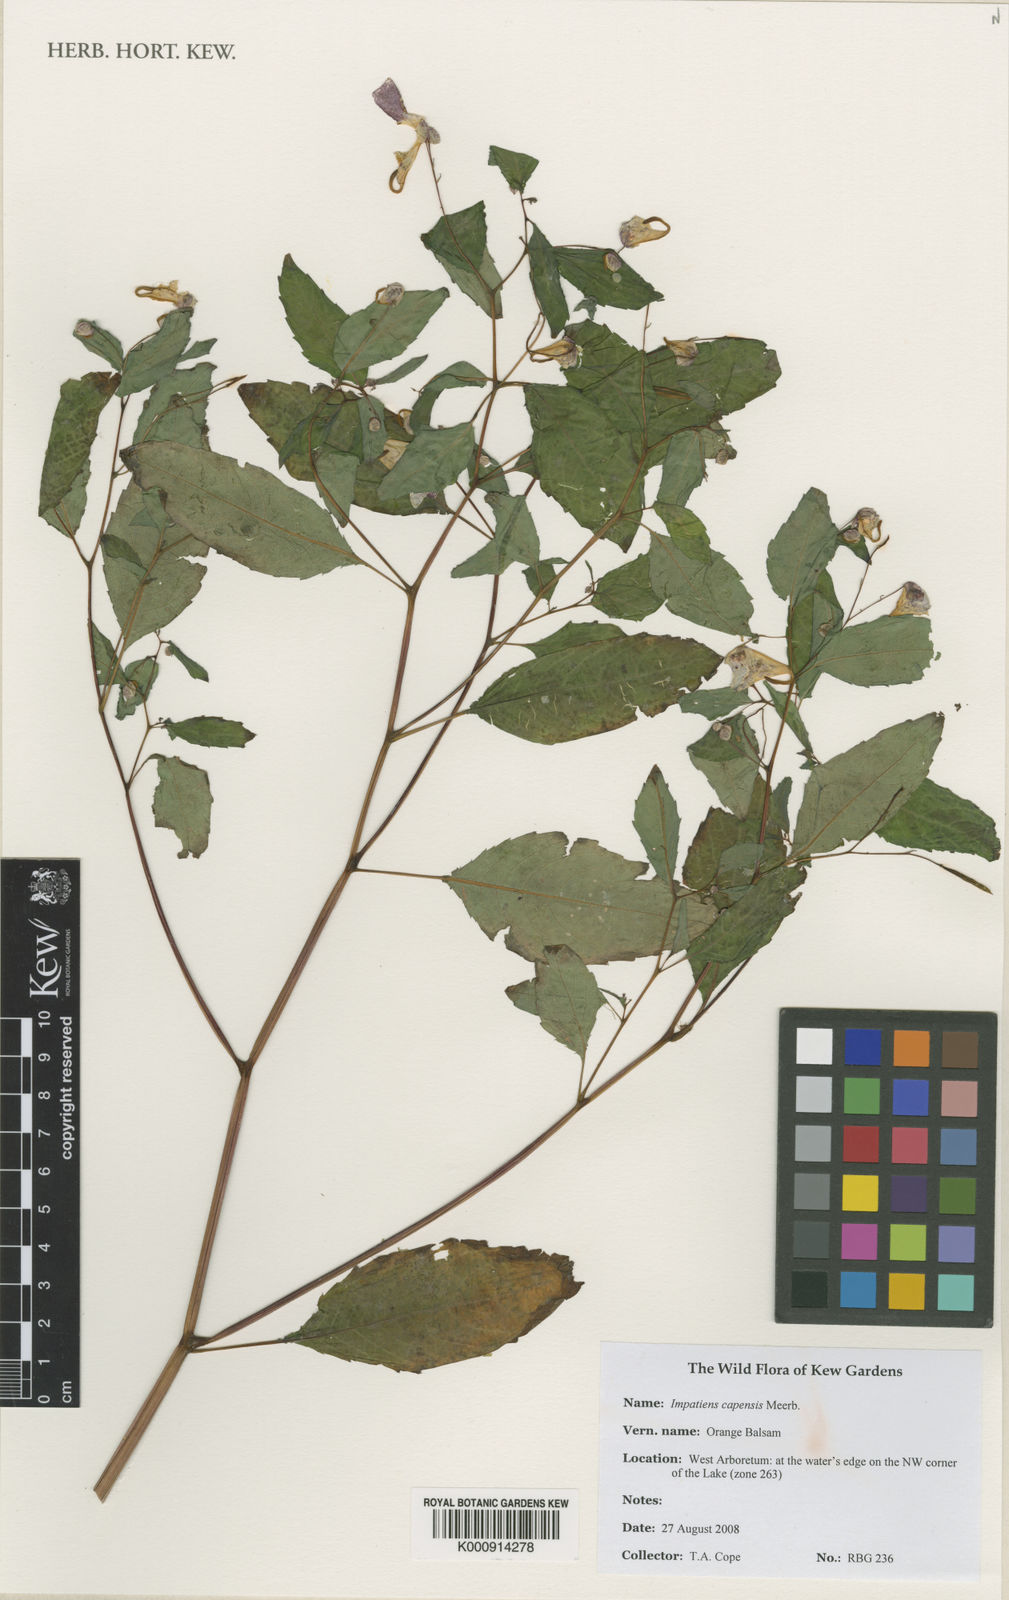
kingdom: Plantae
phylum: Tracheophyta
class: Magnoliopsida
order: Ericales
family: Balsaminaceae
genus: Impatiens
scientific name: Impatiens capensis
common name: Orange balsam
